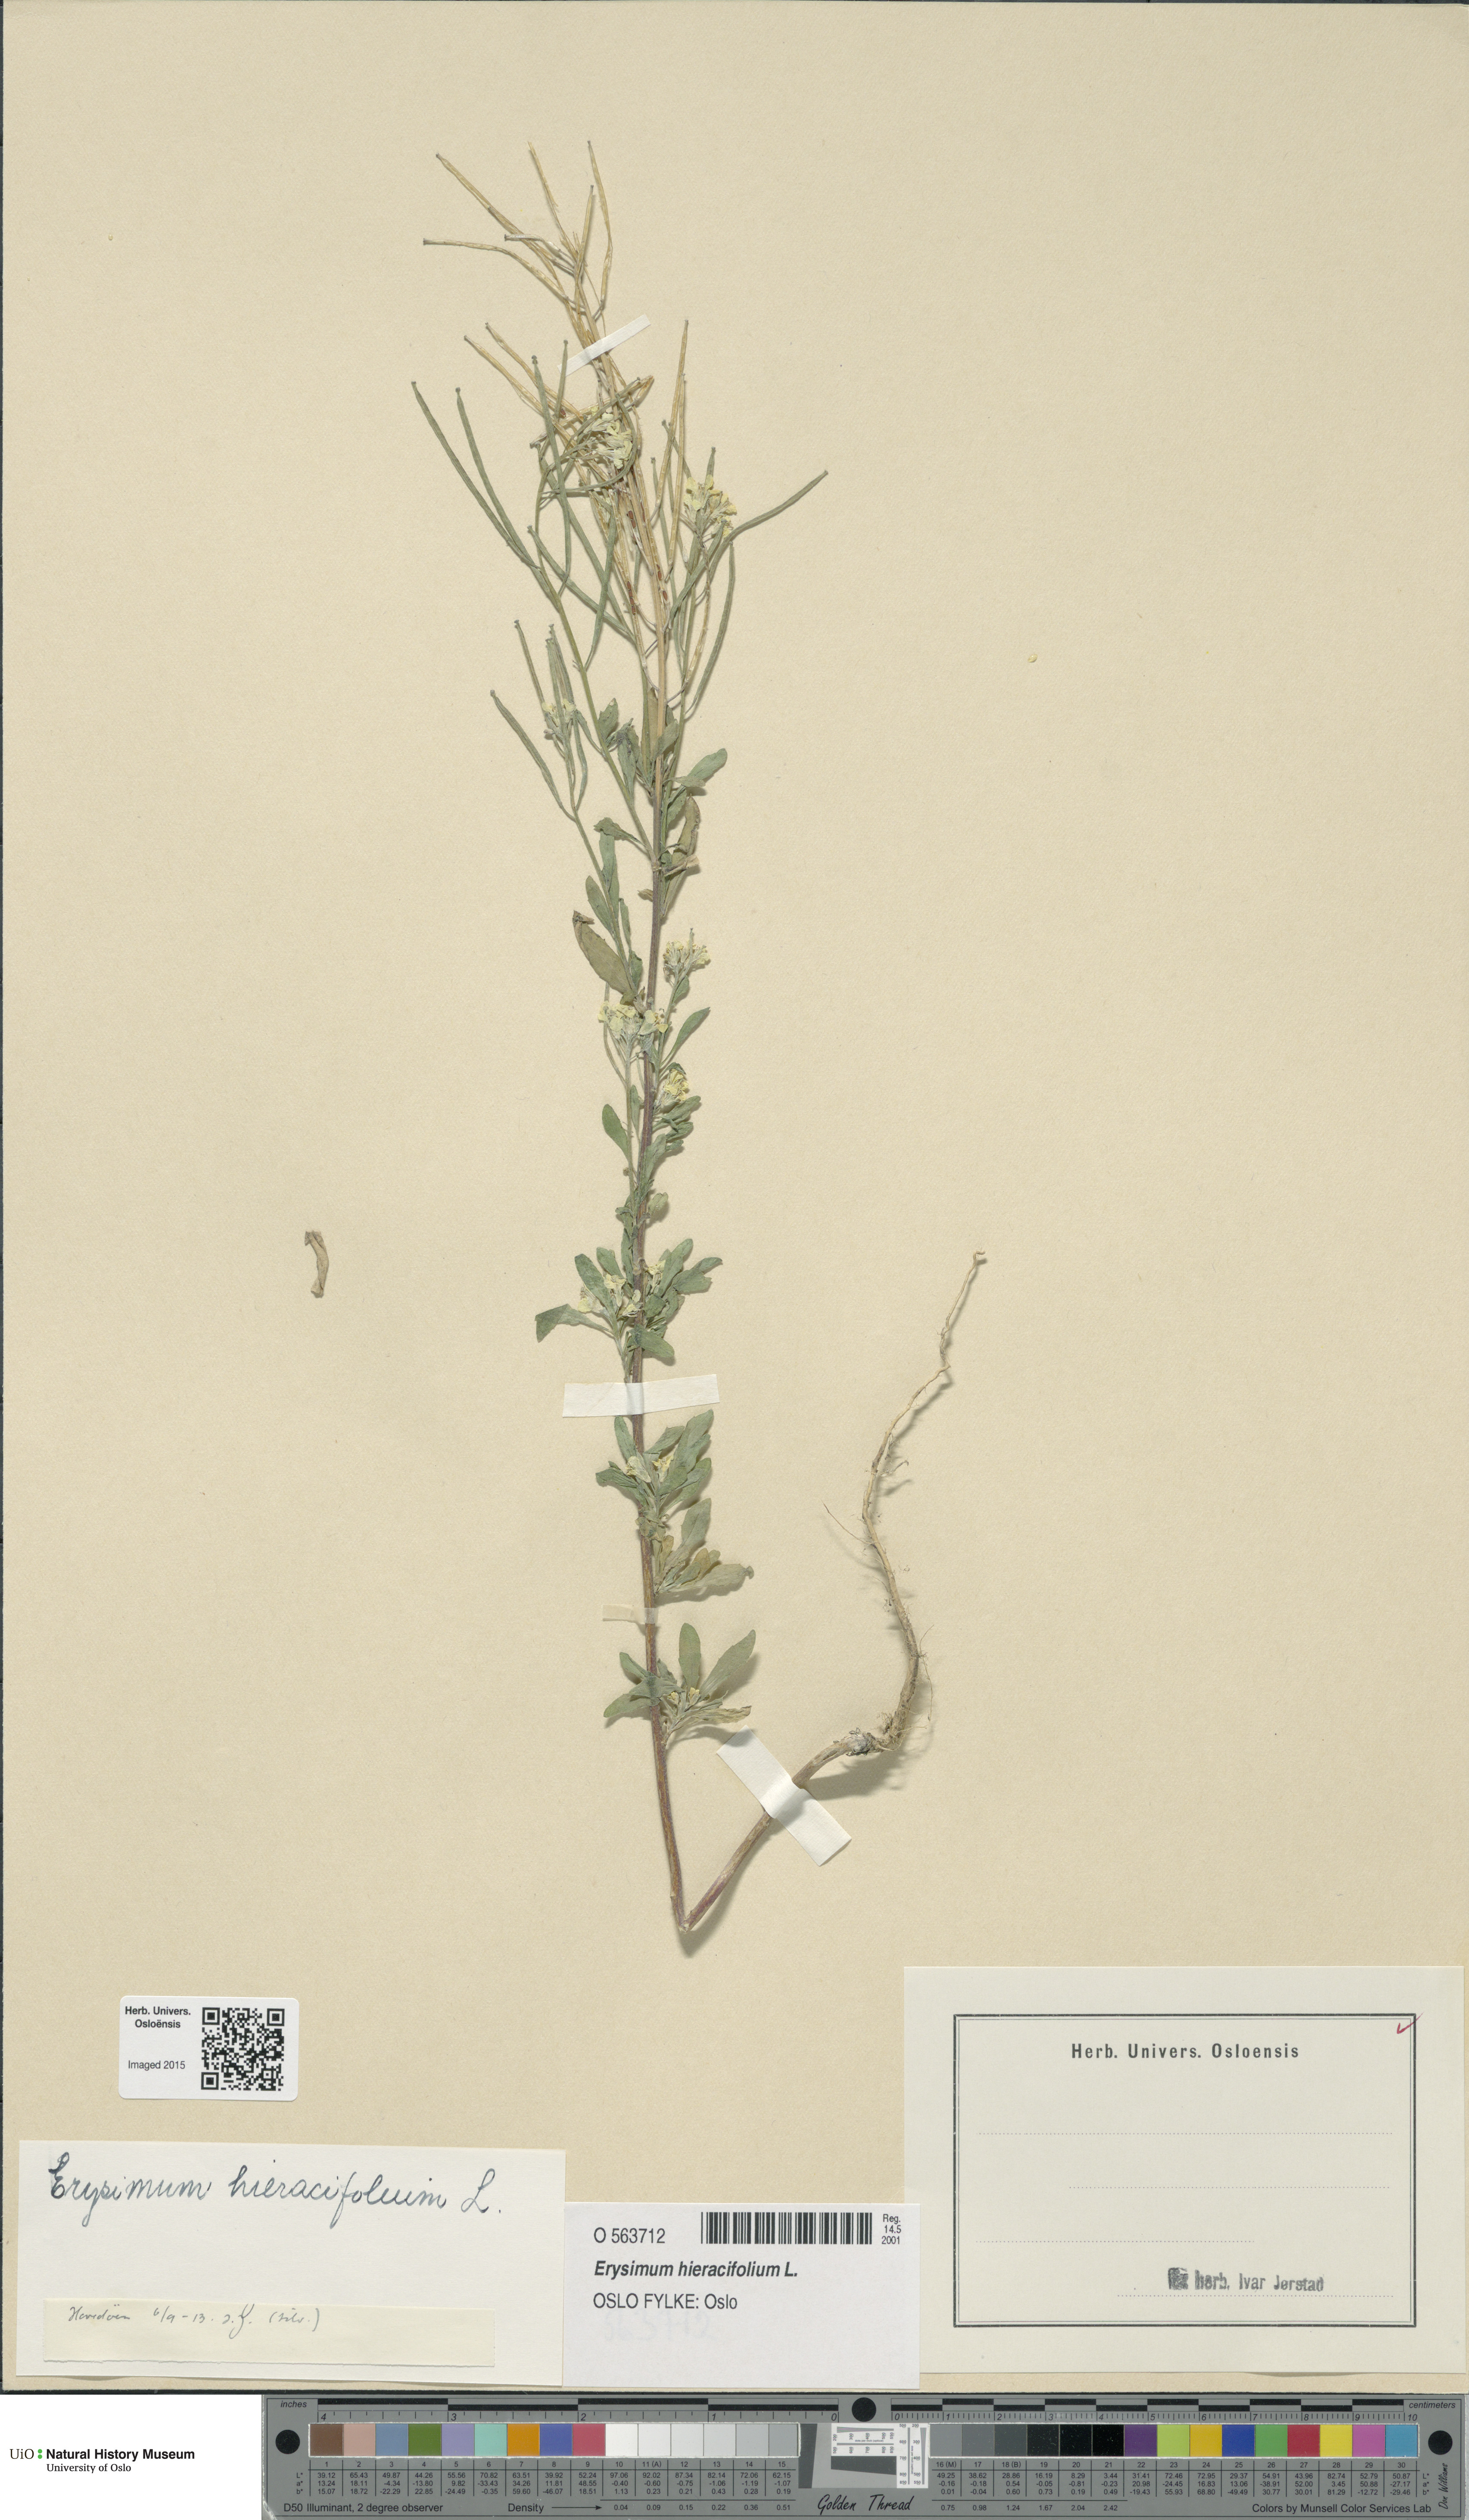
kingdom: Plantae
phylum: Tracheophyta
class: Magnoliopsida
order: Brassicales
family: Brassicaceae
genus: Erysimum
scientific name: Erysimum hieraciifolium
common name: European wallflower
